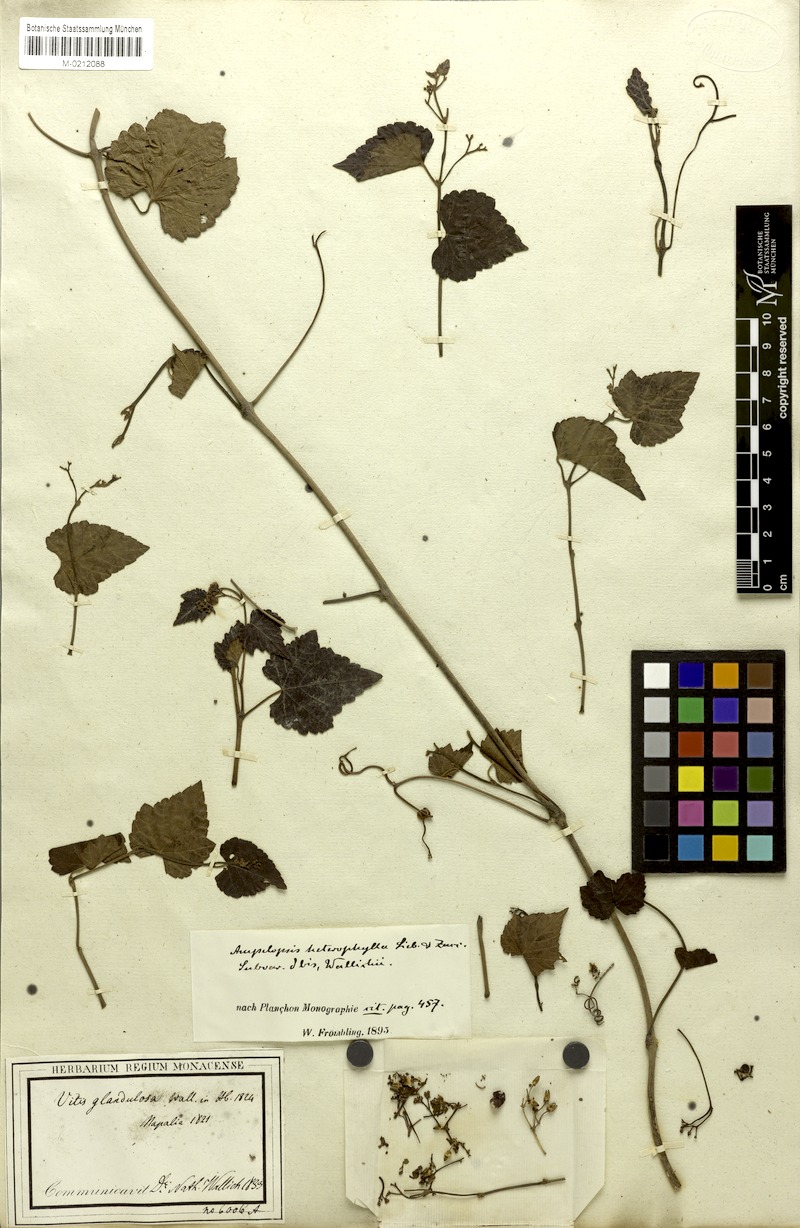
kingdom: Plantae
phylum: Tracheophyta
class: Magnoliopsida
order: Vitales
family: Vitaceae
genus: Parthenocissus
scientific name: Parthenocissus semicordata
